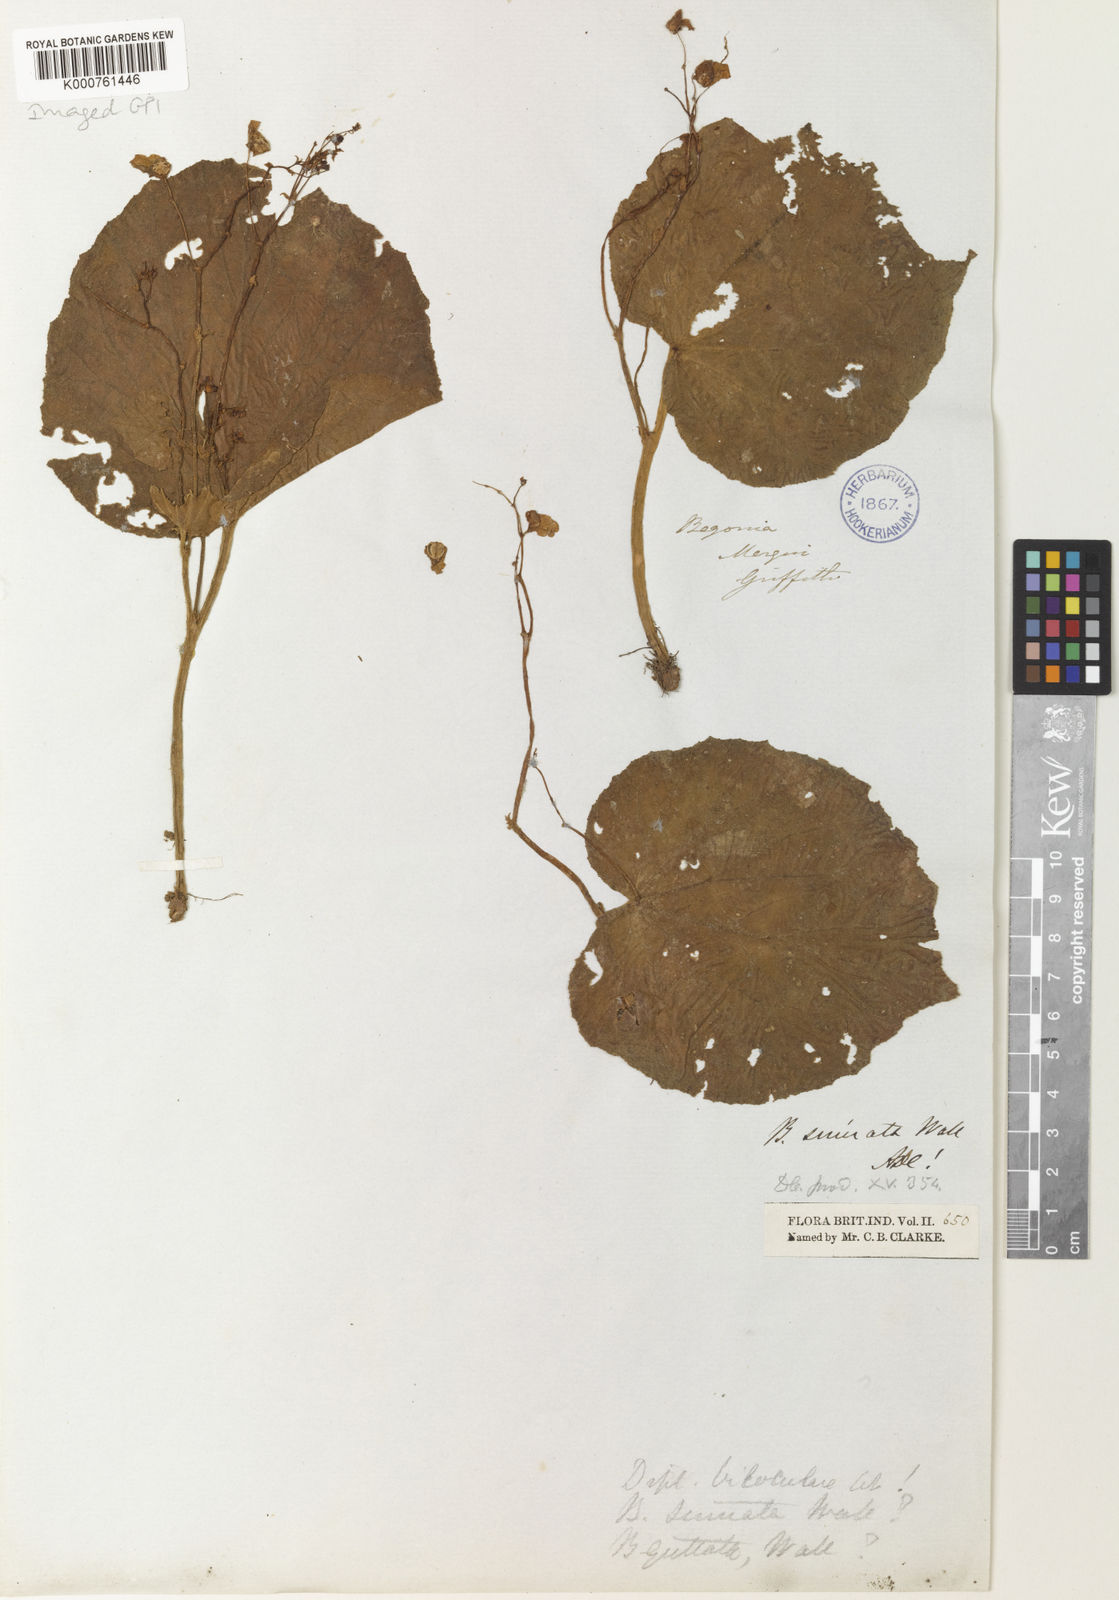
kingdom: Plantae
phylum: Tracheophyta
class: Magnoliopsida
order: Cucurbitales
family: Begoniaceae
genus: Begonia
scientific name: Begonia
